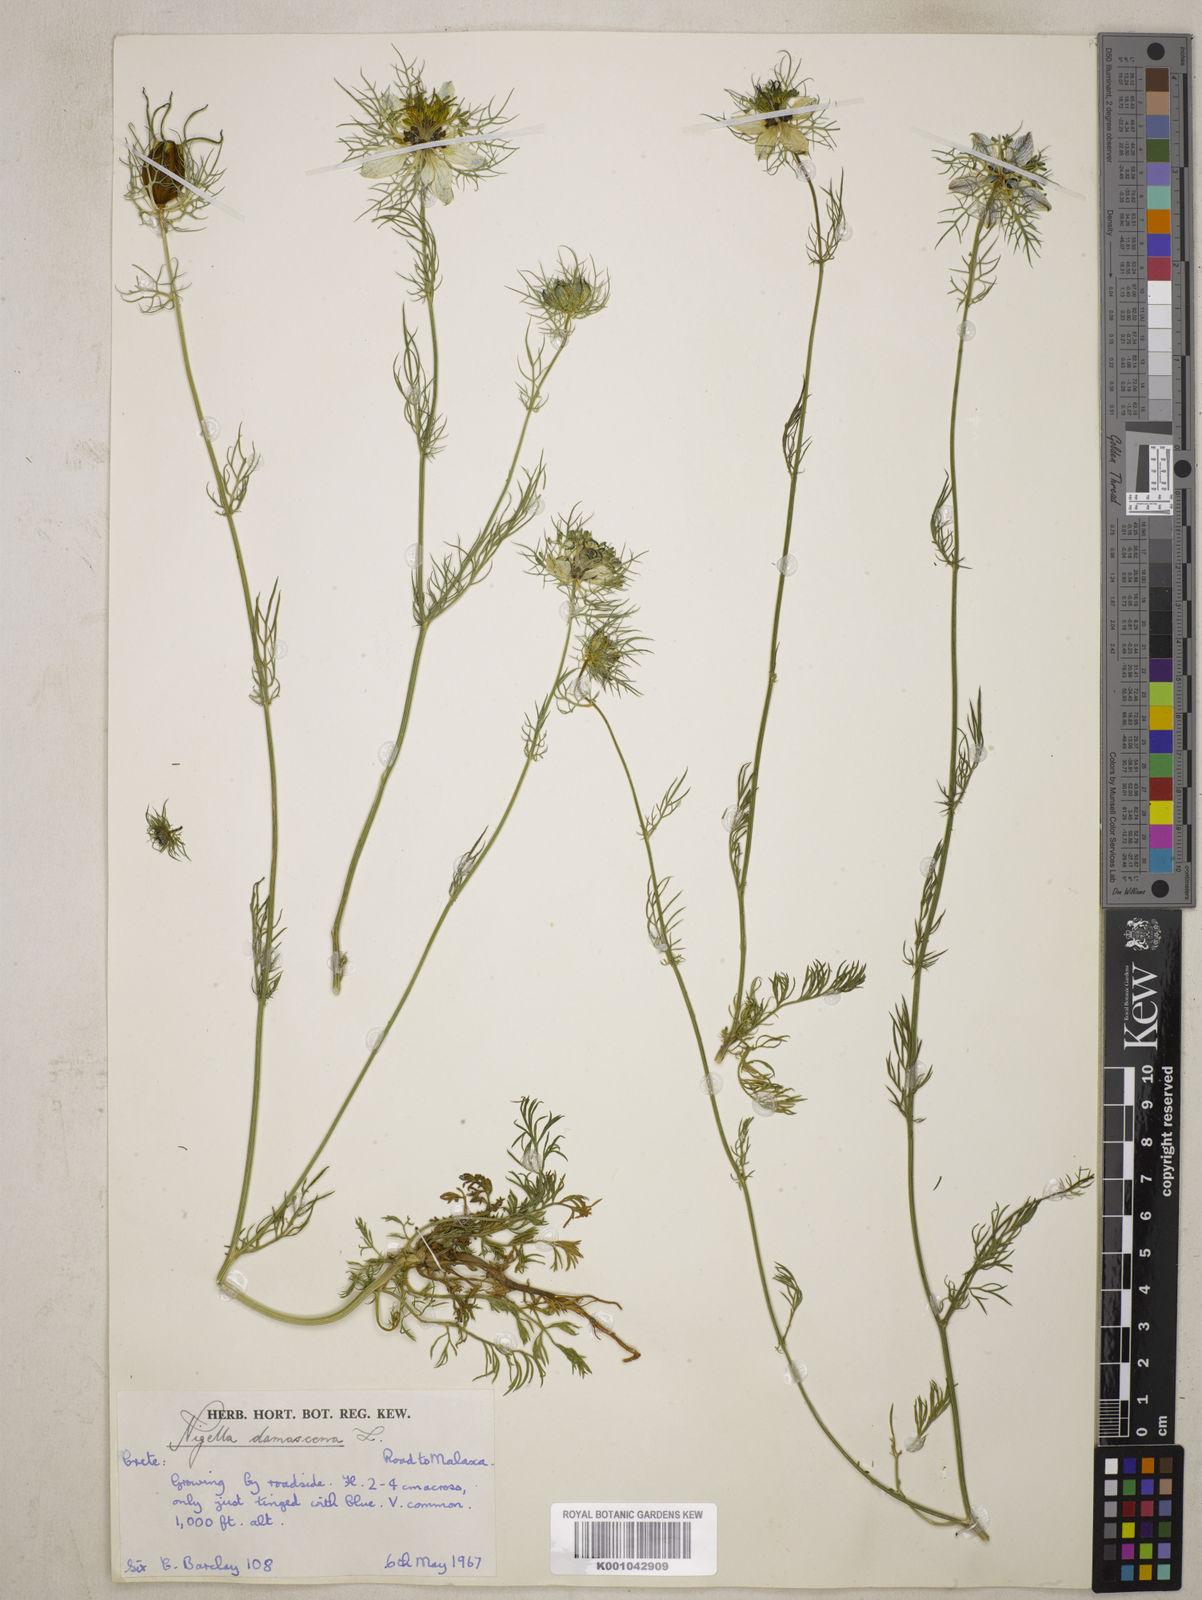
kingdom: Plantae
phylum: Tracheophyta
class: Magnoliopsida
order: Ranunculales
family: Ranunculaceae
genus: Nigella
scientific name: Nigella damascena
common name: Love-in-a-mist
